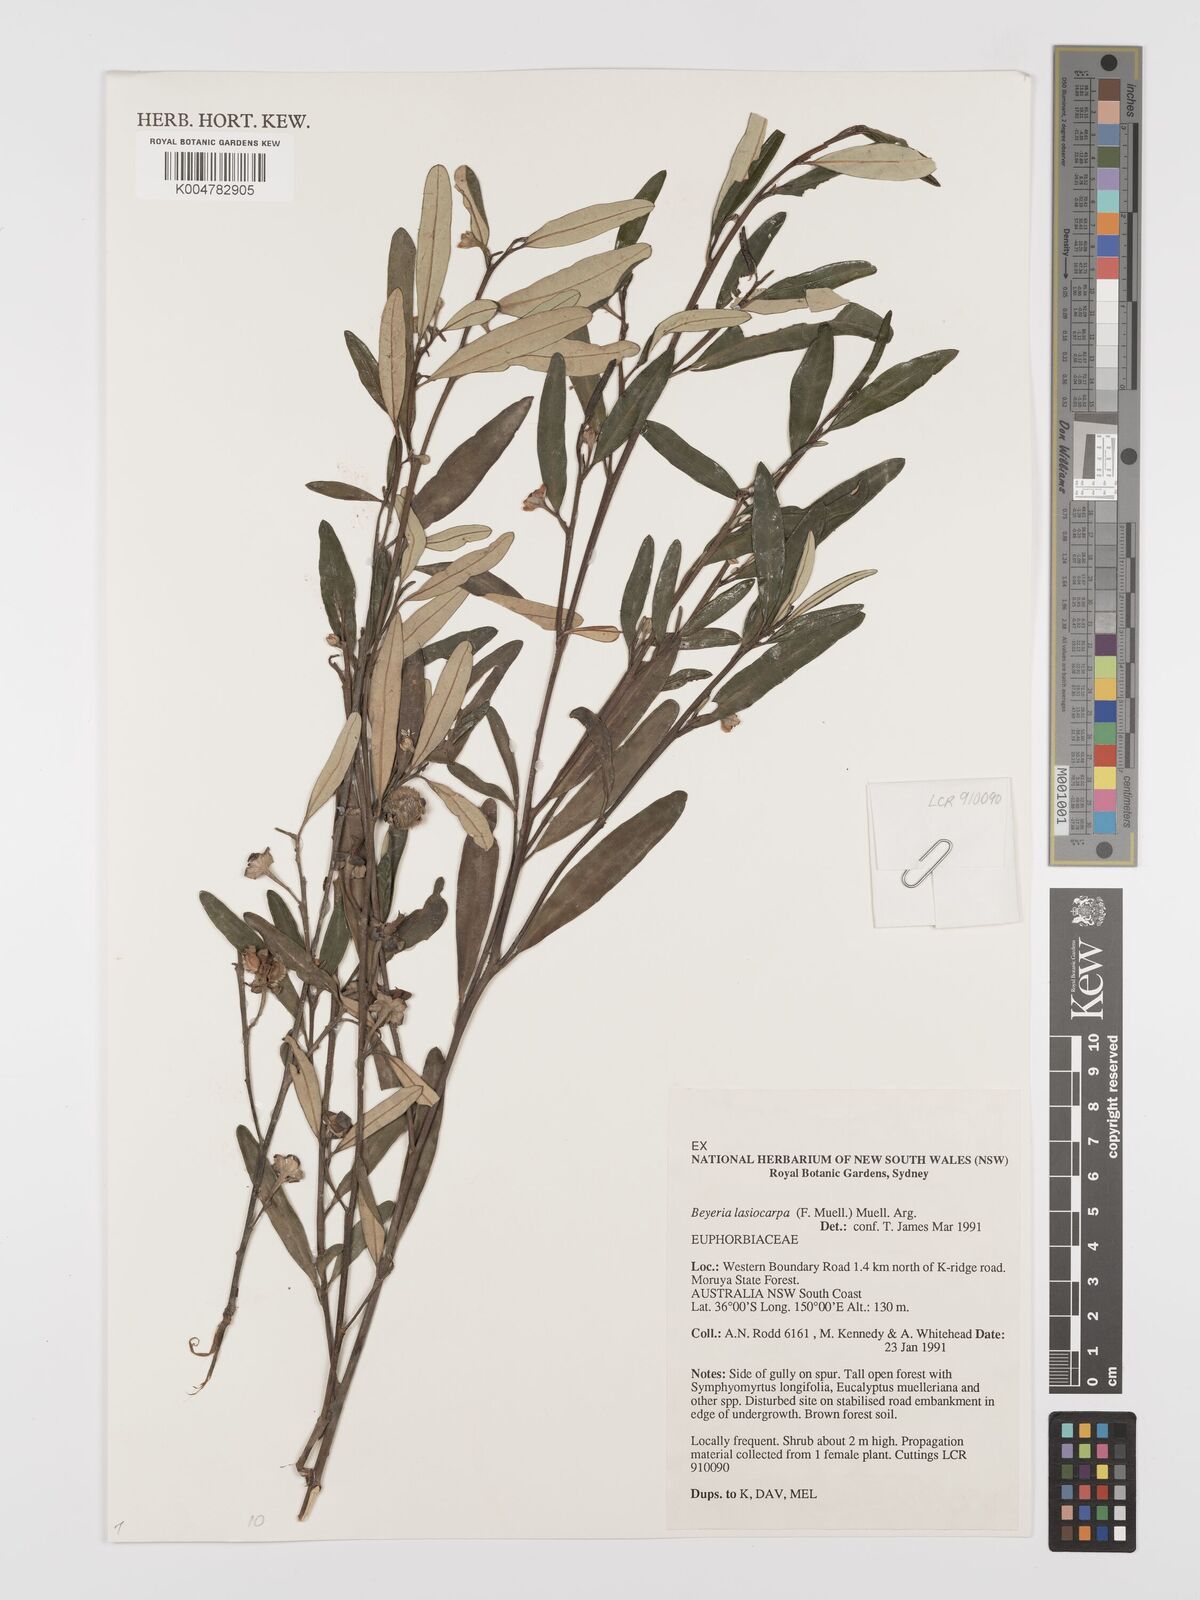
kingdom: Plantae
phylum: Tracheophyta
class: Magnoliopsida
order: Malpighiales
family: Euphorbiaceae
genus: Beyeria
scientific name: Beyeria lasiocarpa
